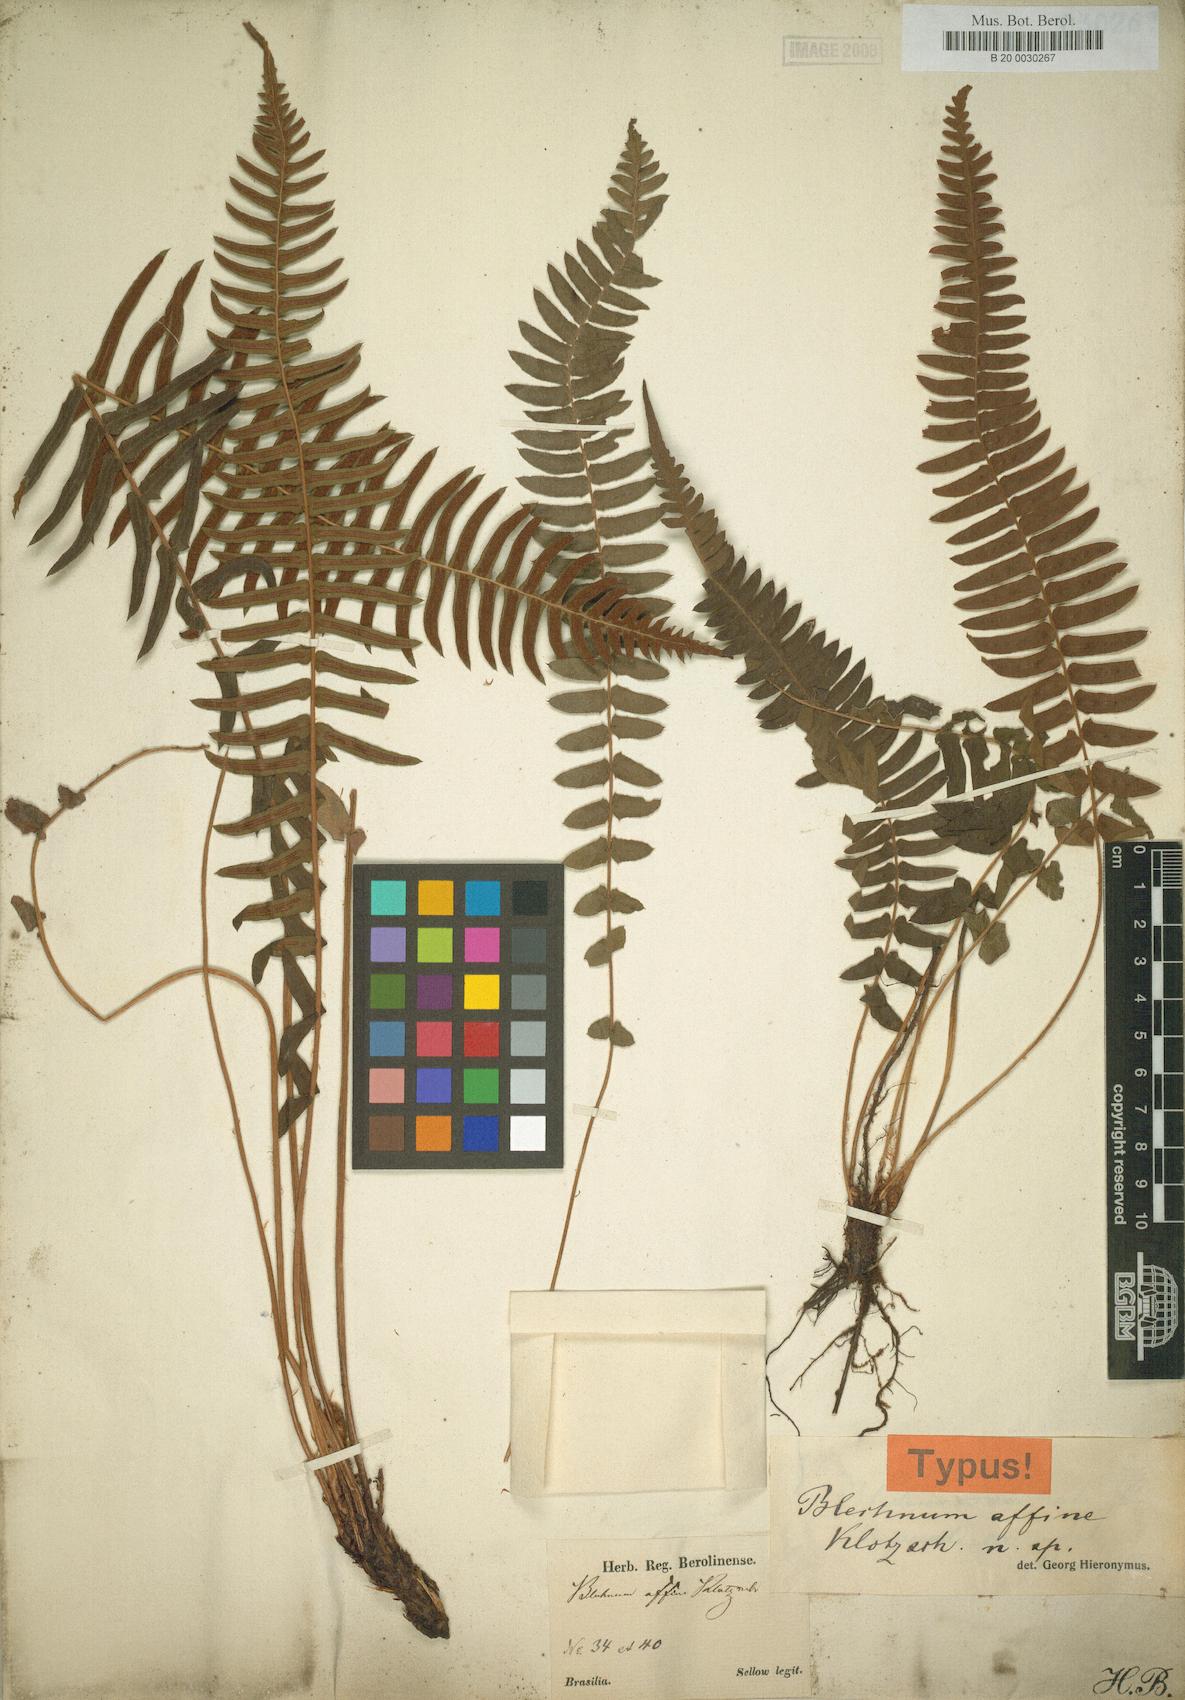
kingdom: Plantae
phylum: Tracheophyta
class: Polypodiopsida
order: Polypodiales
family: Blechnaceae
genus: Blechnum
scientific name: Blechnum auriculatum
